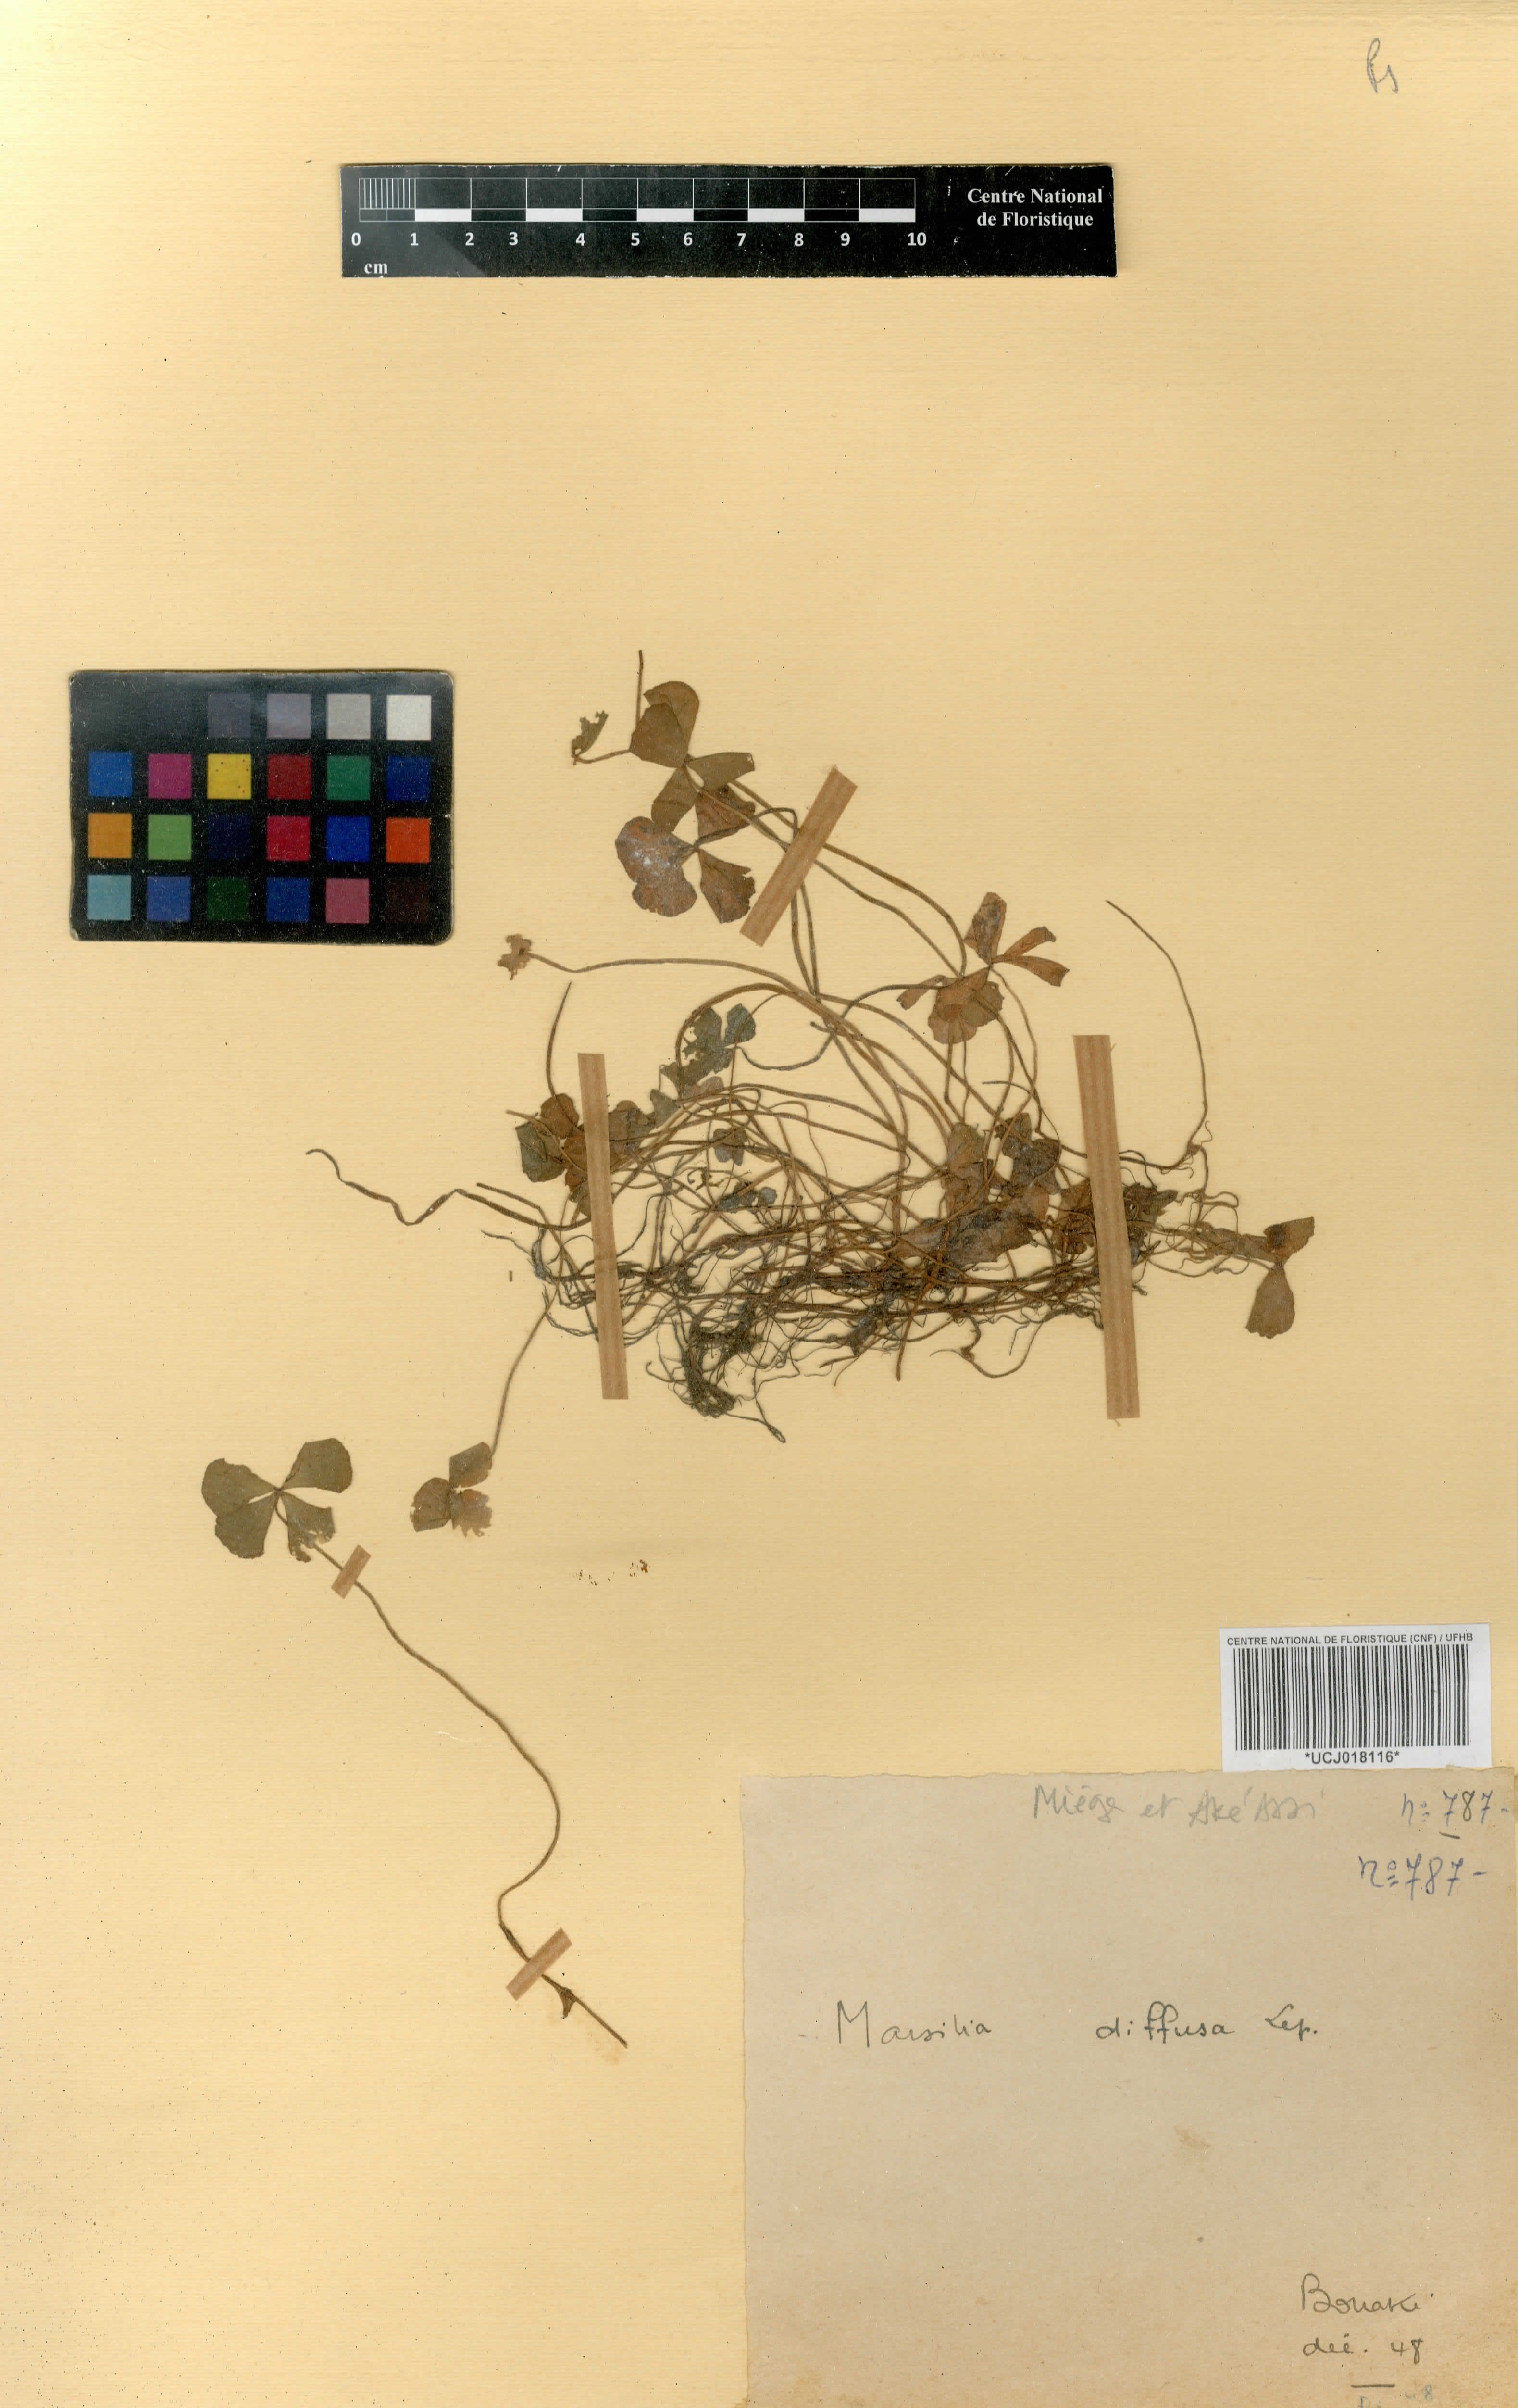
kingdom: Plantae
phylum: Tracheophyta
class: Polypodiopsida
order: Salviniales
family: Marsileaceae
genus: Marsilea
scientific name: Marsilea minuta
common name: Dwarf waterclover
